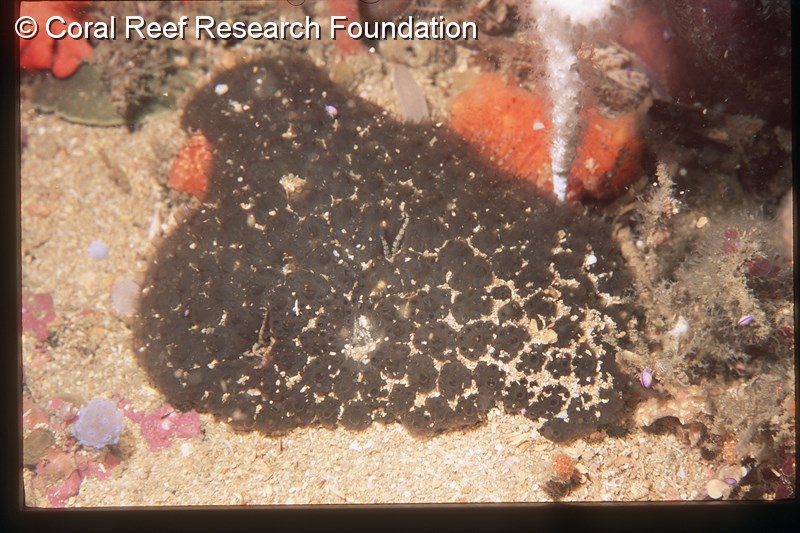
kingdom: Animalia
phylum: Chordata
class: Ascidiacea
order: Aplousobranchia
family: Holozoidae
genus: Distaplia
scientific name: Distaplia
